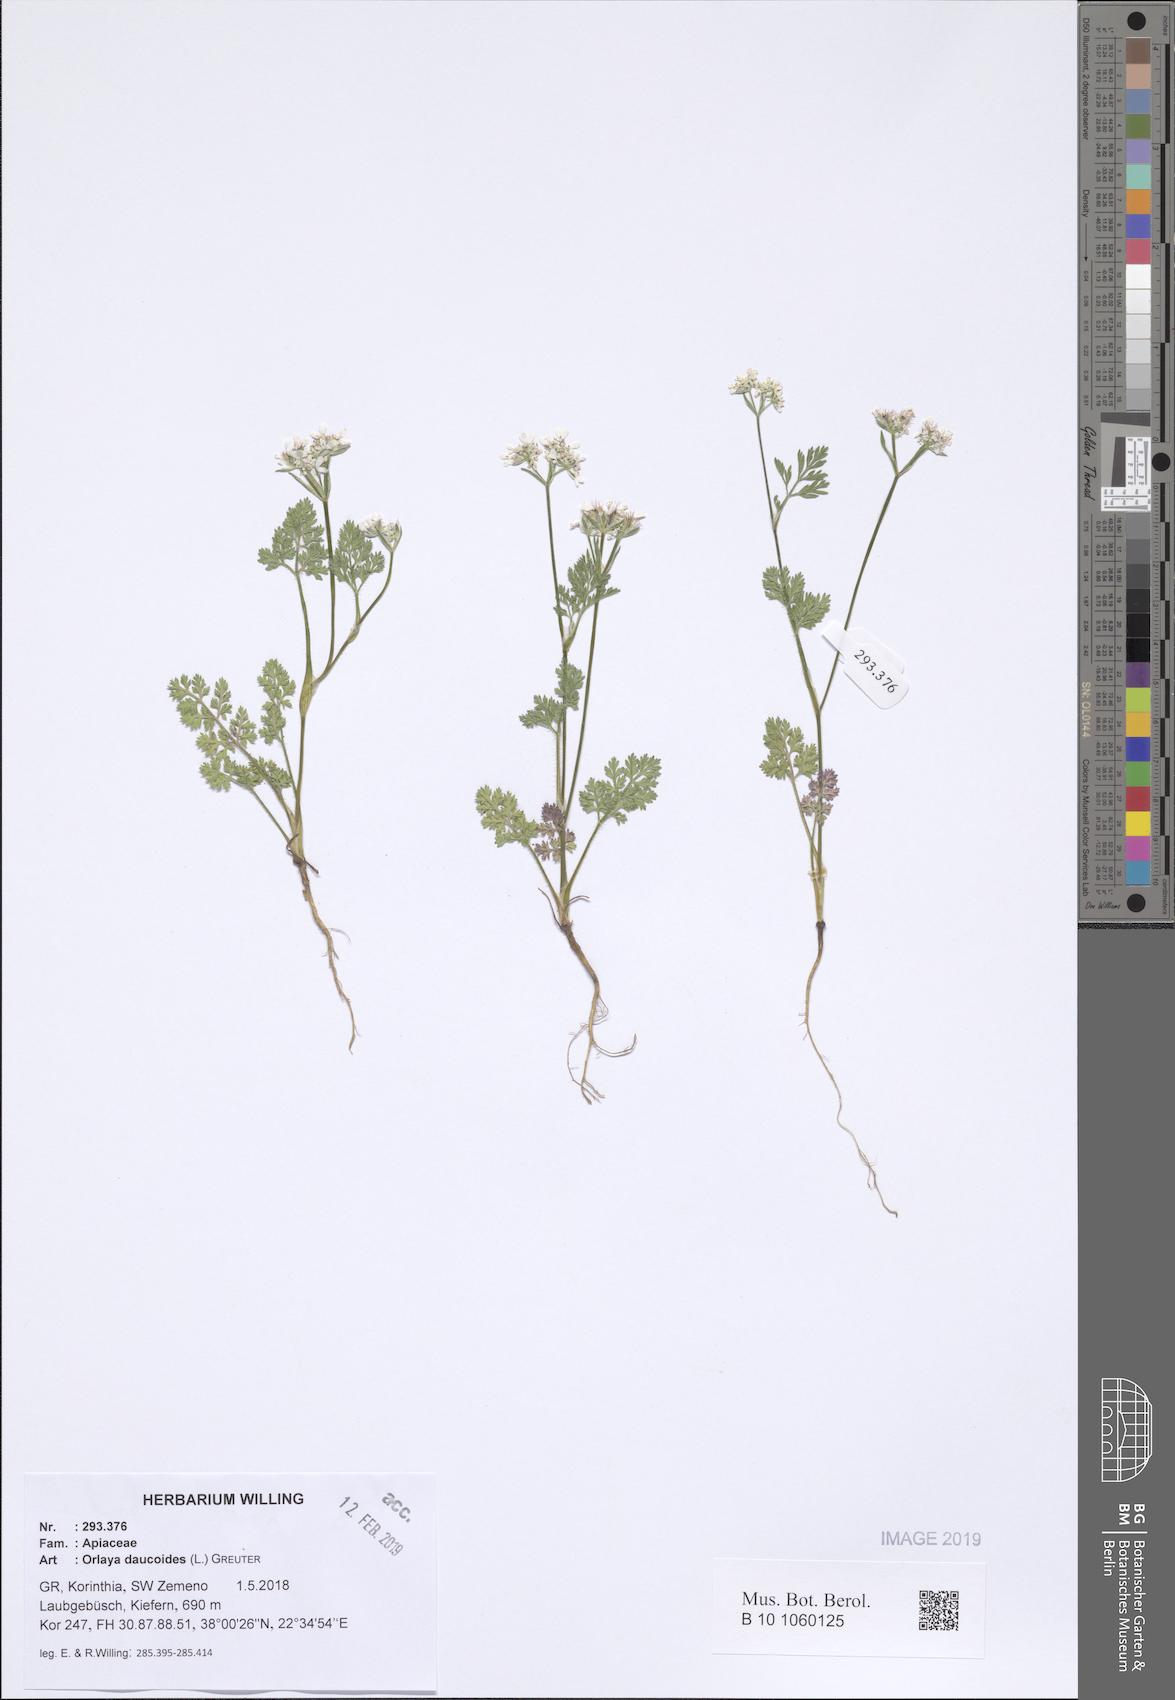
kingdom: Plantae
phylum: Tracheophyta
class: Magnoliopsida
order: Apiales
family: Apiaceae
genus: Orlaya
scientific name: Orlaya daucoides
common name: Flat-fruit orlaya
